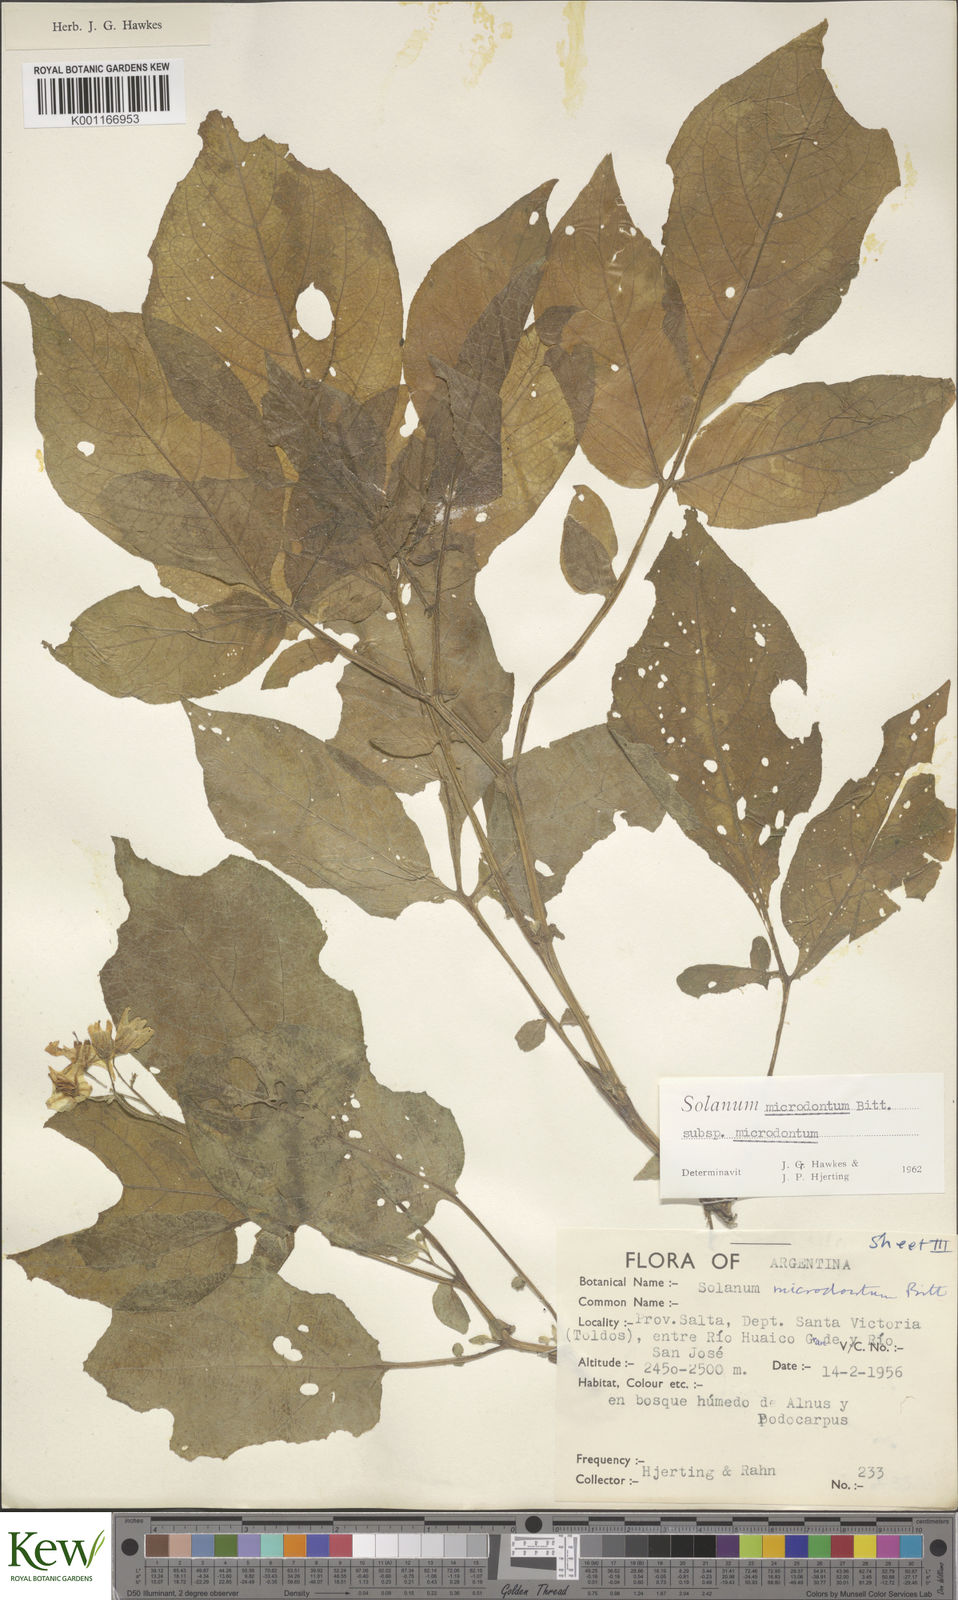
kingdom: Plantae
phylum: Tracheophyta
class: Magnoliopsida
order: Solanales
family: Solanaceae
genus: Solanum
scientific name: Solanum microdontum
